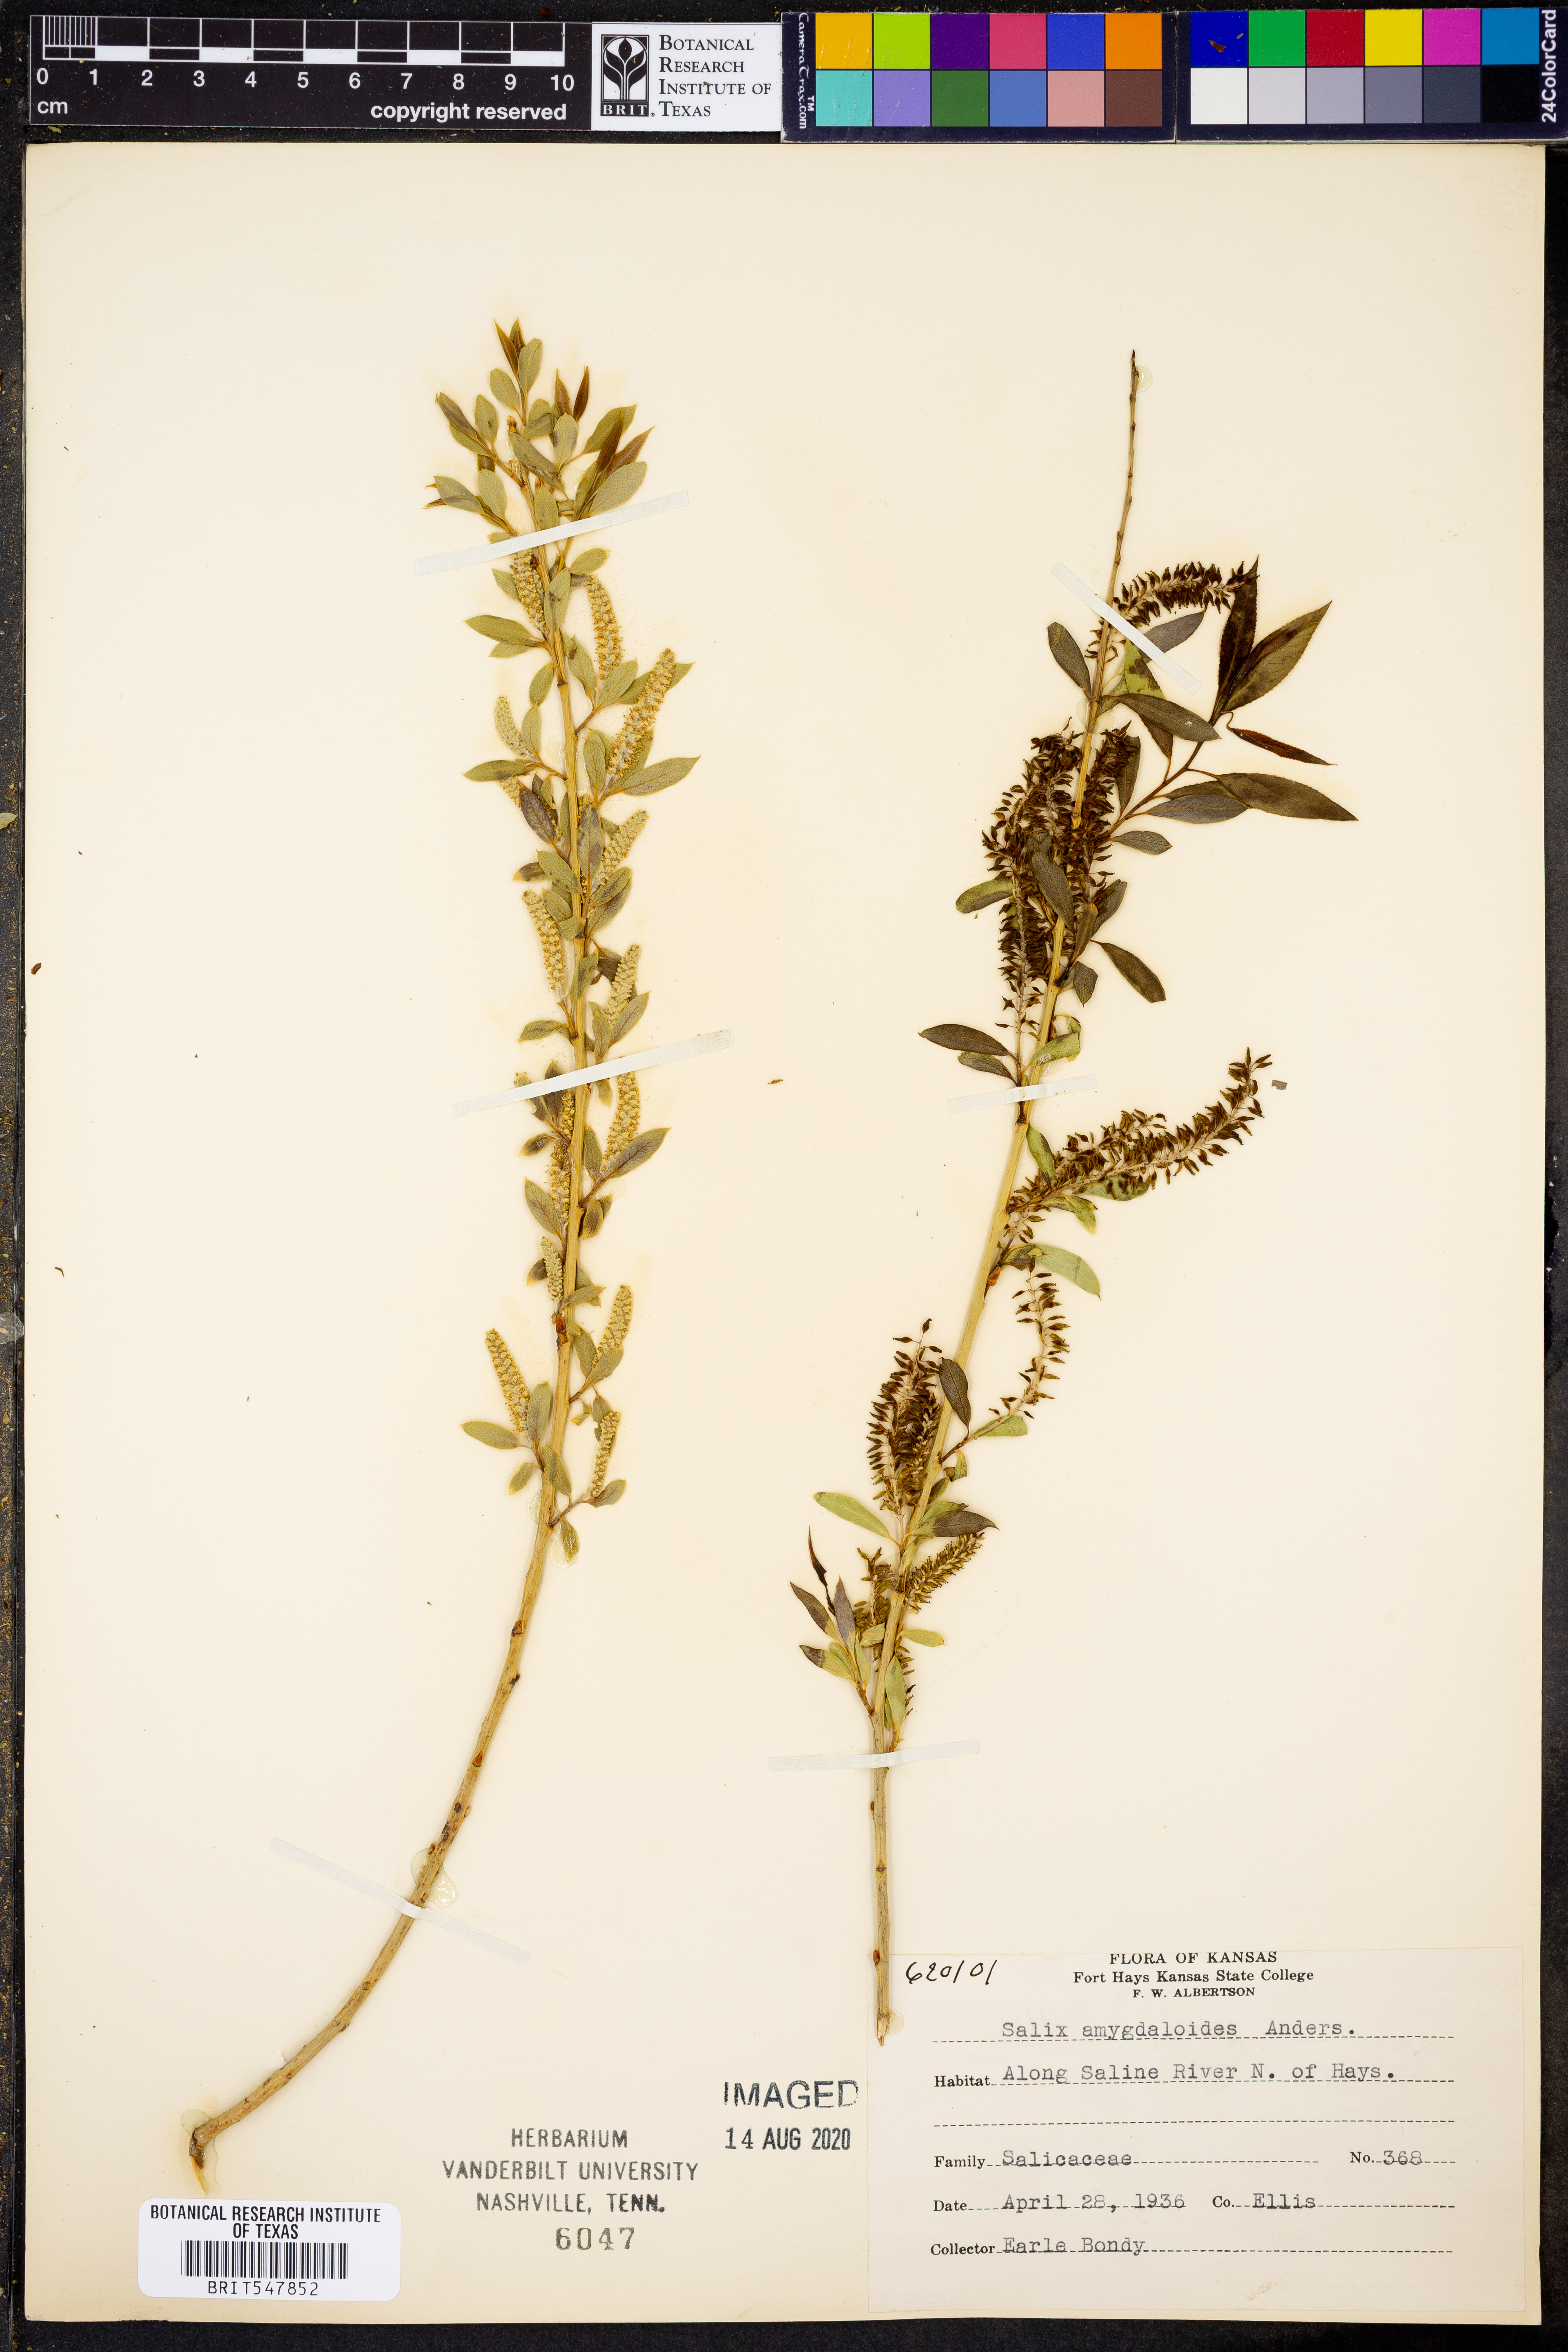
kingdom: Plantae
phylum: Tracheophyta
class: Magnoliopsida
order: Malpighiales
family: Salicaceae
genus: Salix
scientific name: Salix amygdaloides
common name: Peach leaf willow
